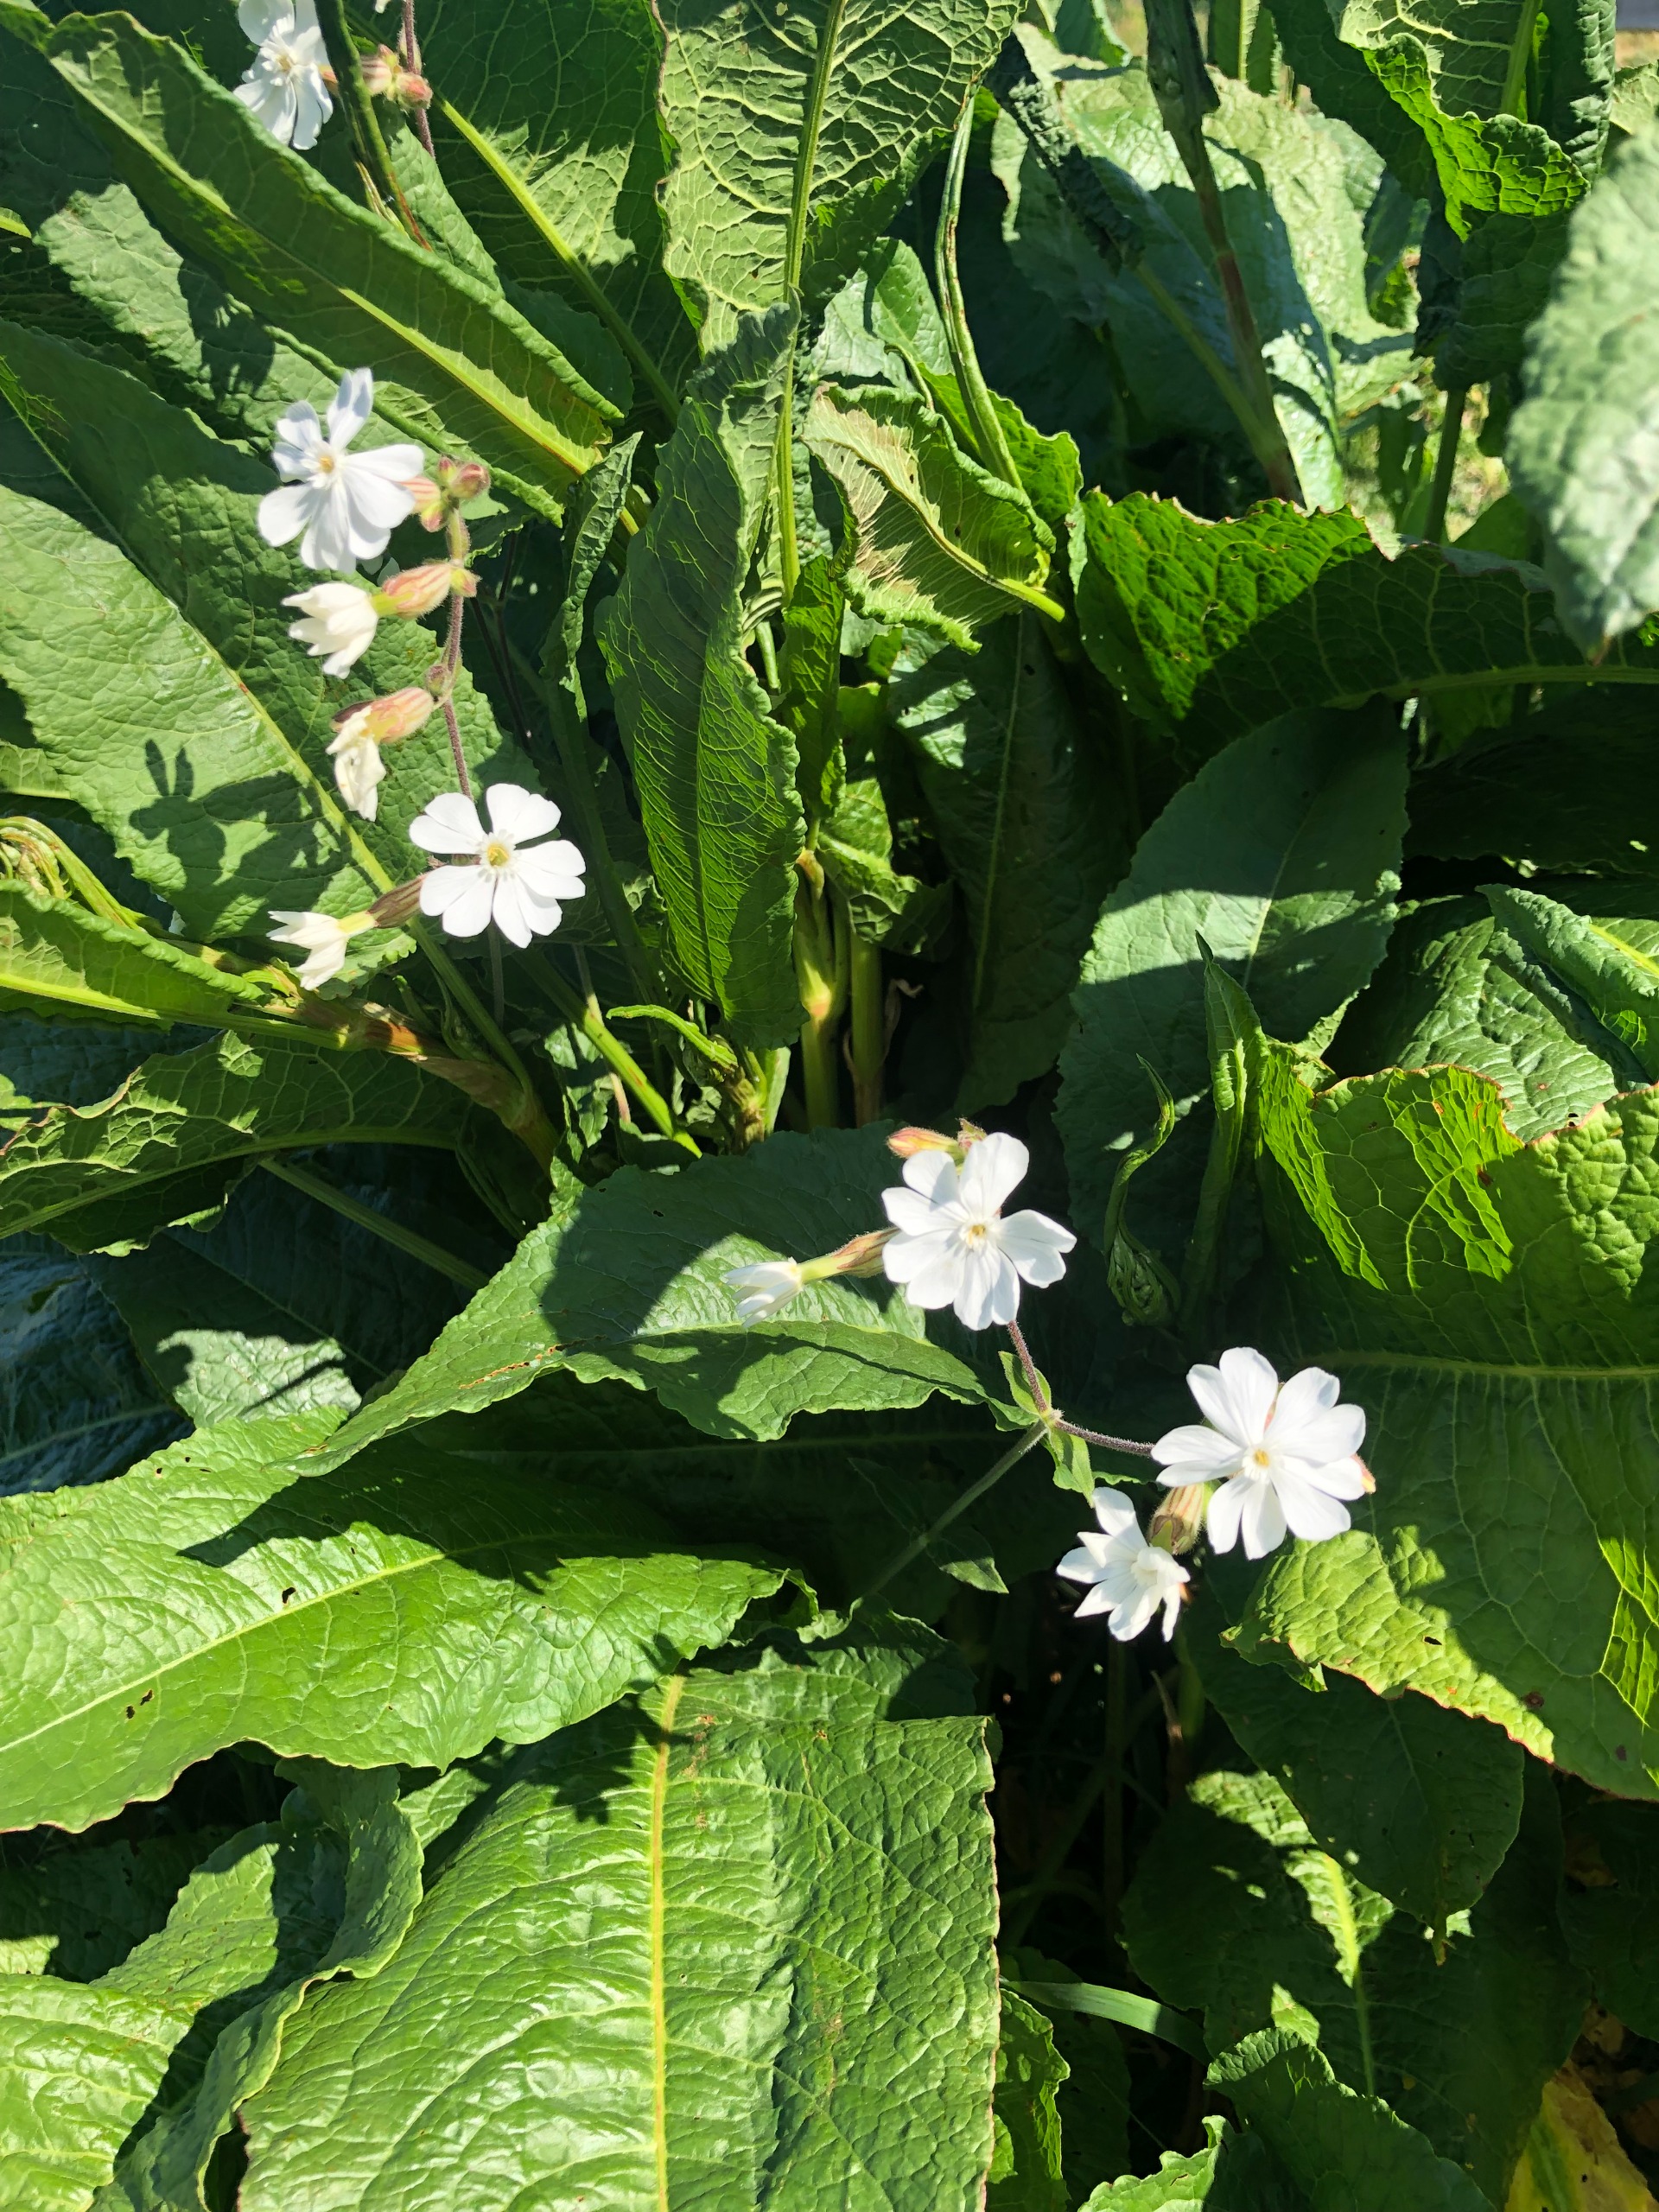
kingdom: Plantae
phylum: Tracheophyta
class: Magnoliopsida
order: Caryophyllales
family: Caryophyllaceae
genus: Silene
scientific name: Silene latifolia
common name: Aftenpragtstjerne
